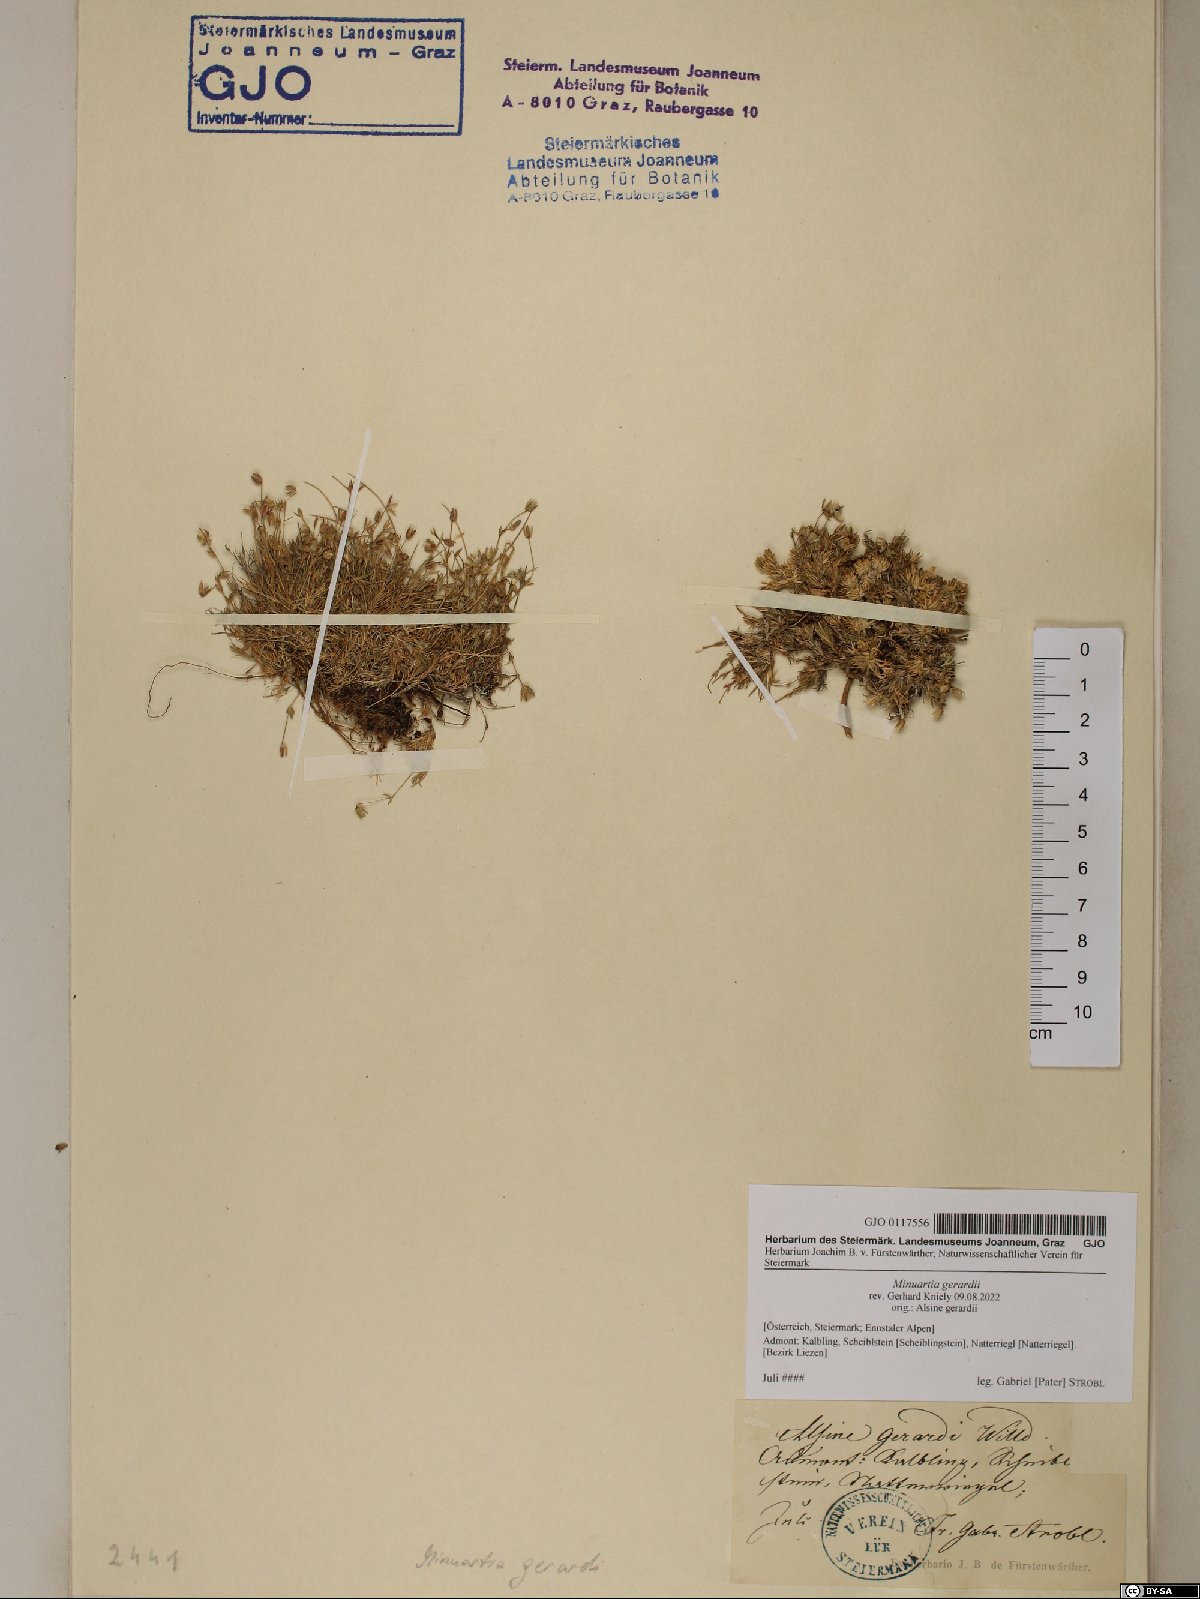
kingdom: Plantae
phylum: Tracheophyta
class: Magnoliopsida
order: Caryophyllales
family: Caryophyllaceae
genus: Sabulina
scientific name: Sabulina verna
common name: Spring sandwort
